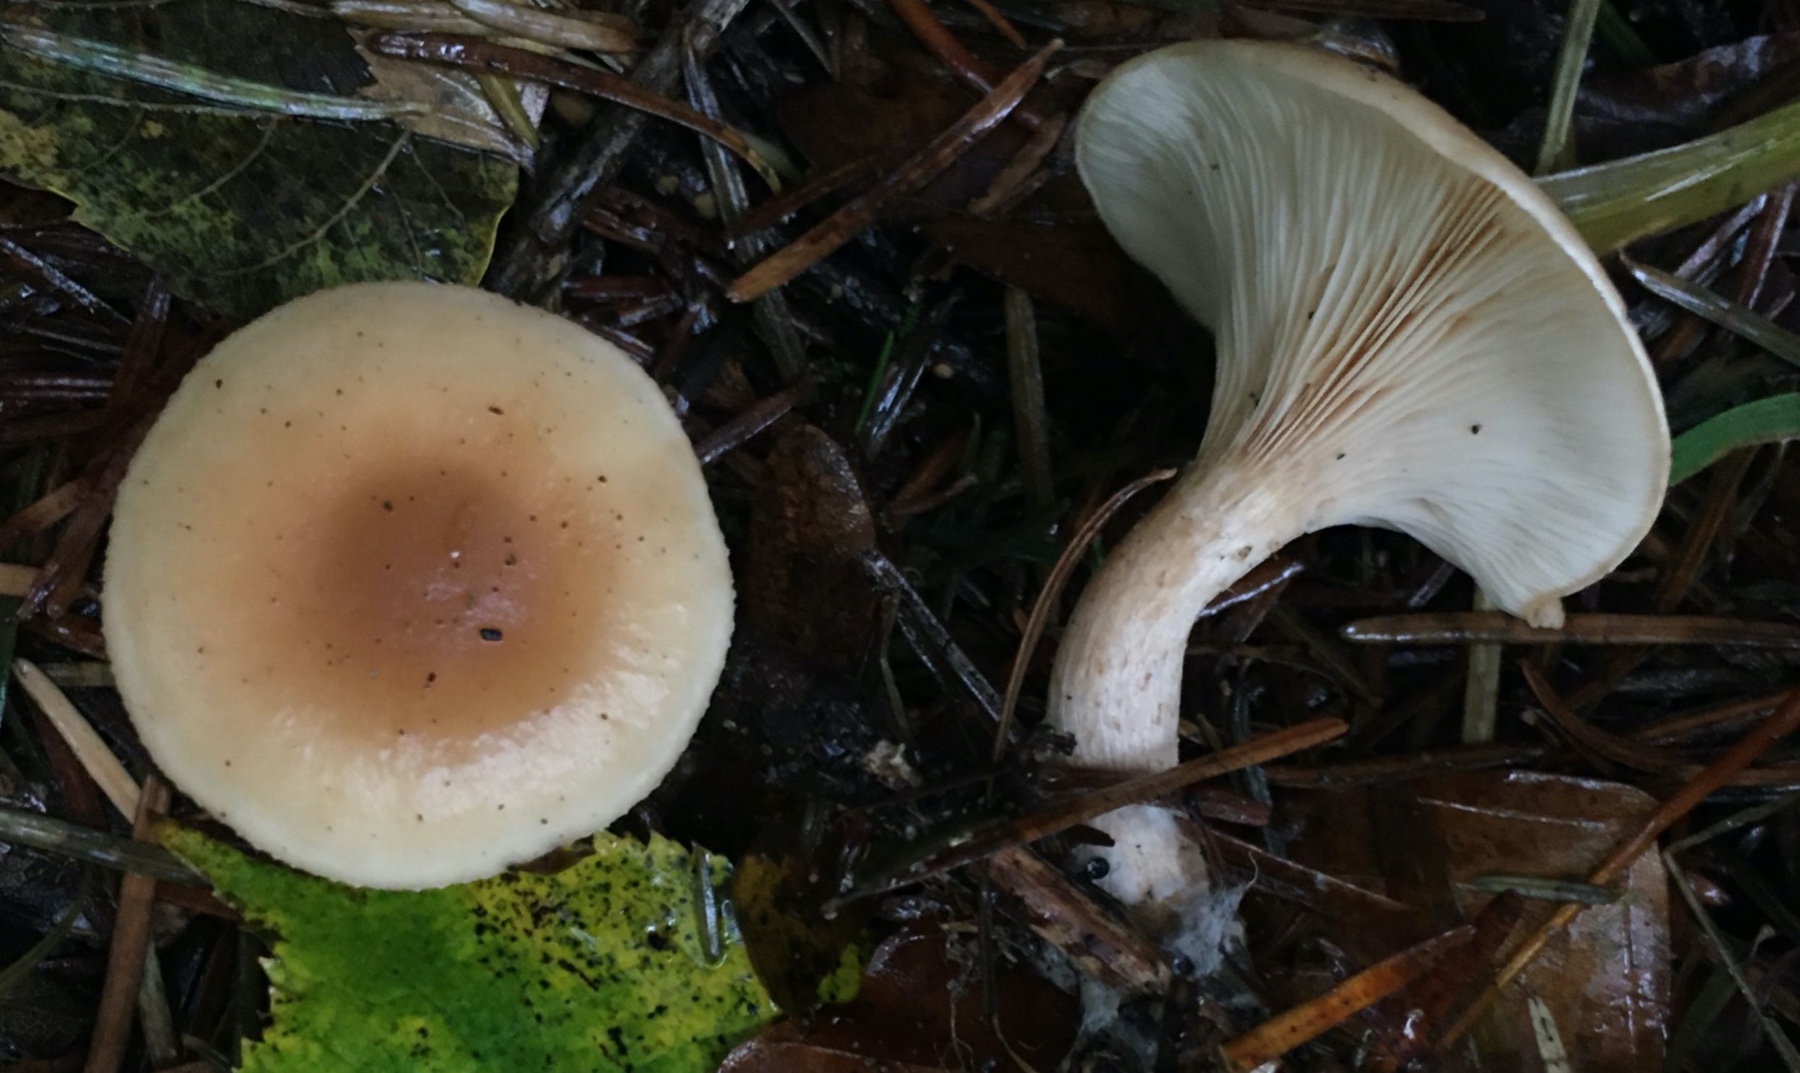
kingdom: Fungi
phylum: Basidiomycota
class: Agaricomycetes
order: Agaricales
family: Tricholomataceae
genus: Paralepista
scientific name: Paralepista flaccida
